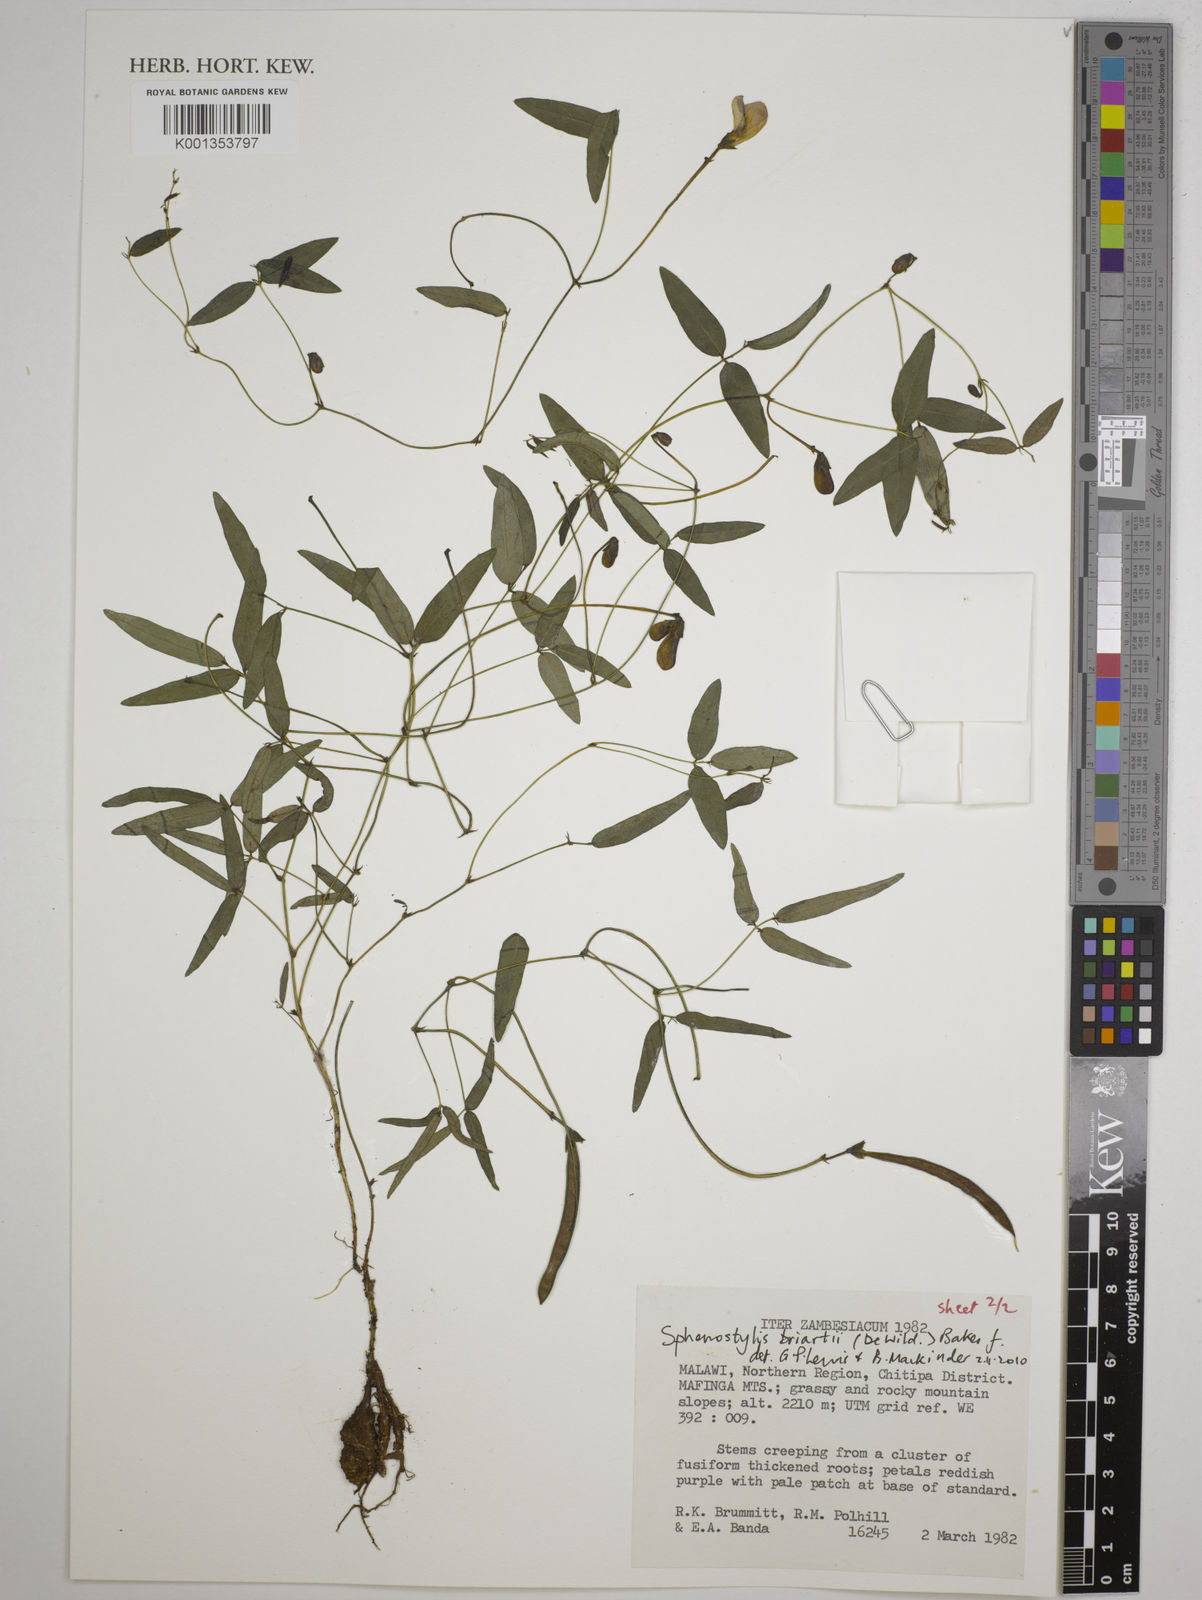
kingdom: Plantae
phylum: Tracheophyta
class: Magnoliopsida
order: Fabales
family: Fabaceae
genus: Sphenostylis
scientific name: Sphenostylis briartii
